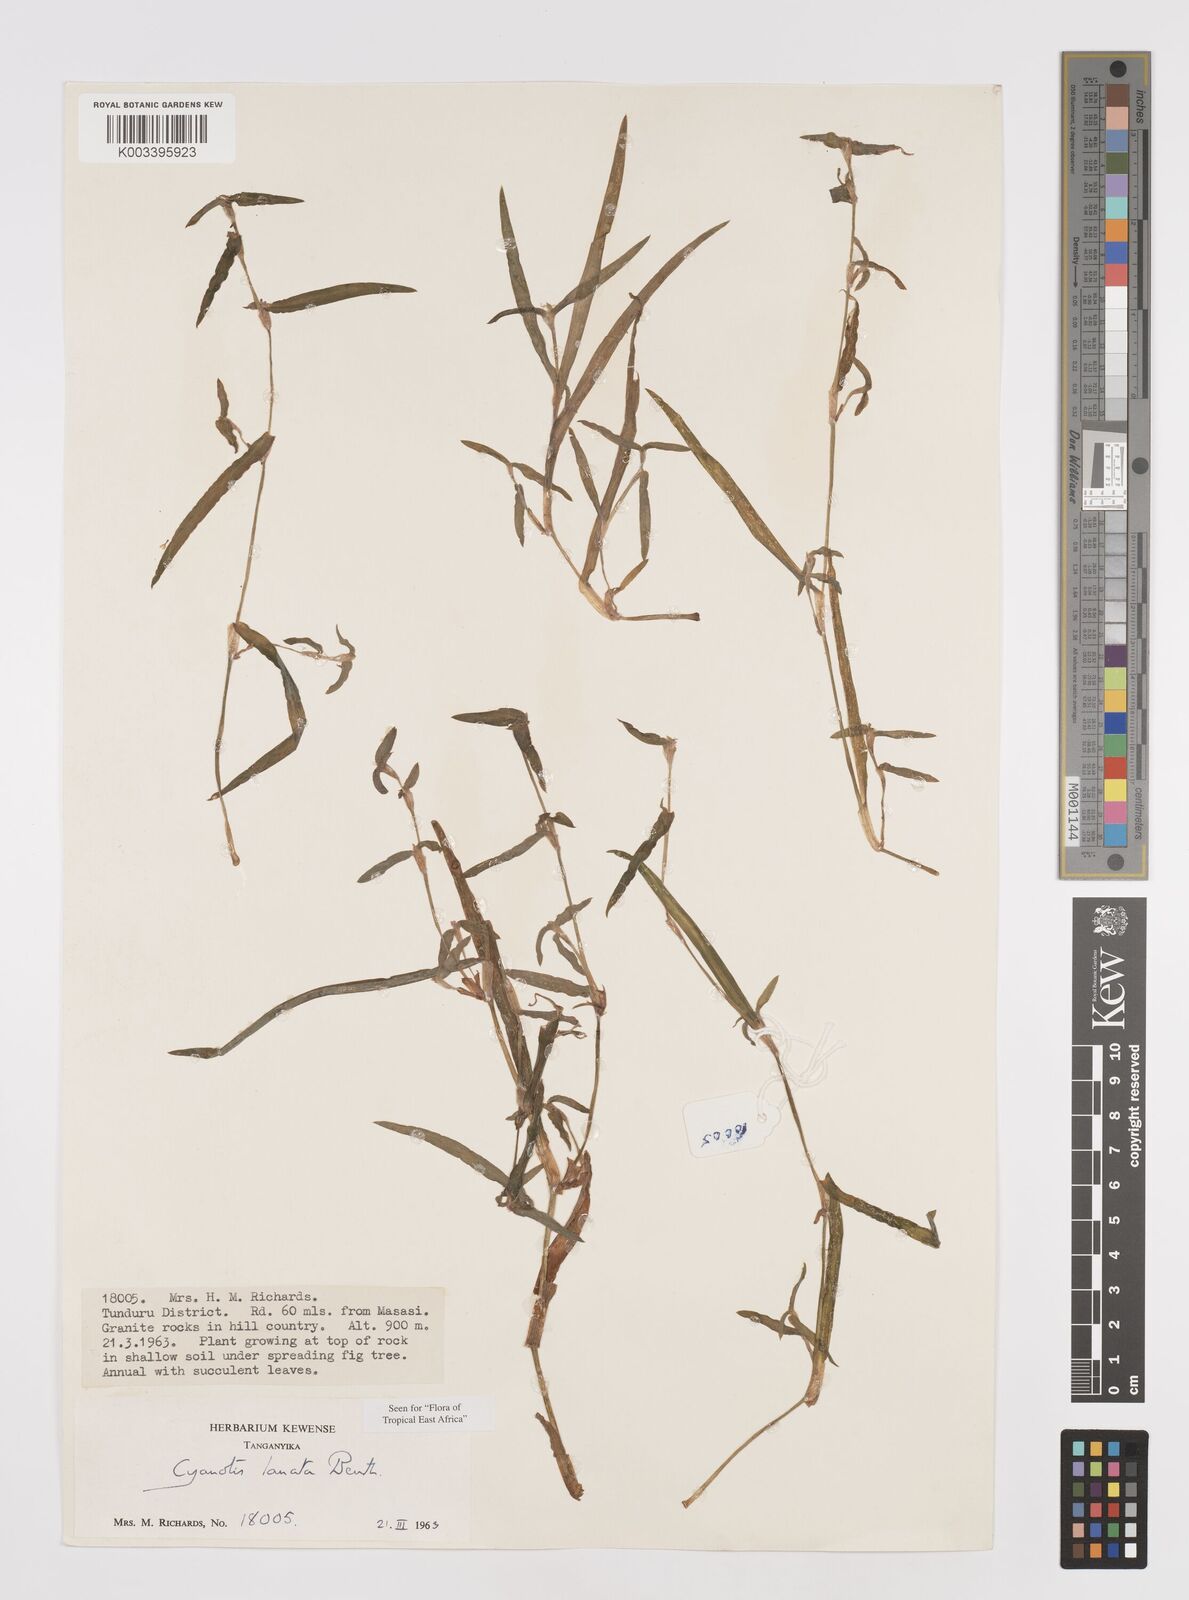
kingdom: Plantae
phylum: Tracheophyta
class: Liliopsida
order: Commelinales
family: Commelinaceae
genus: Cyanotis
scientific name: Cyanotis lanata
